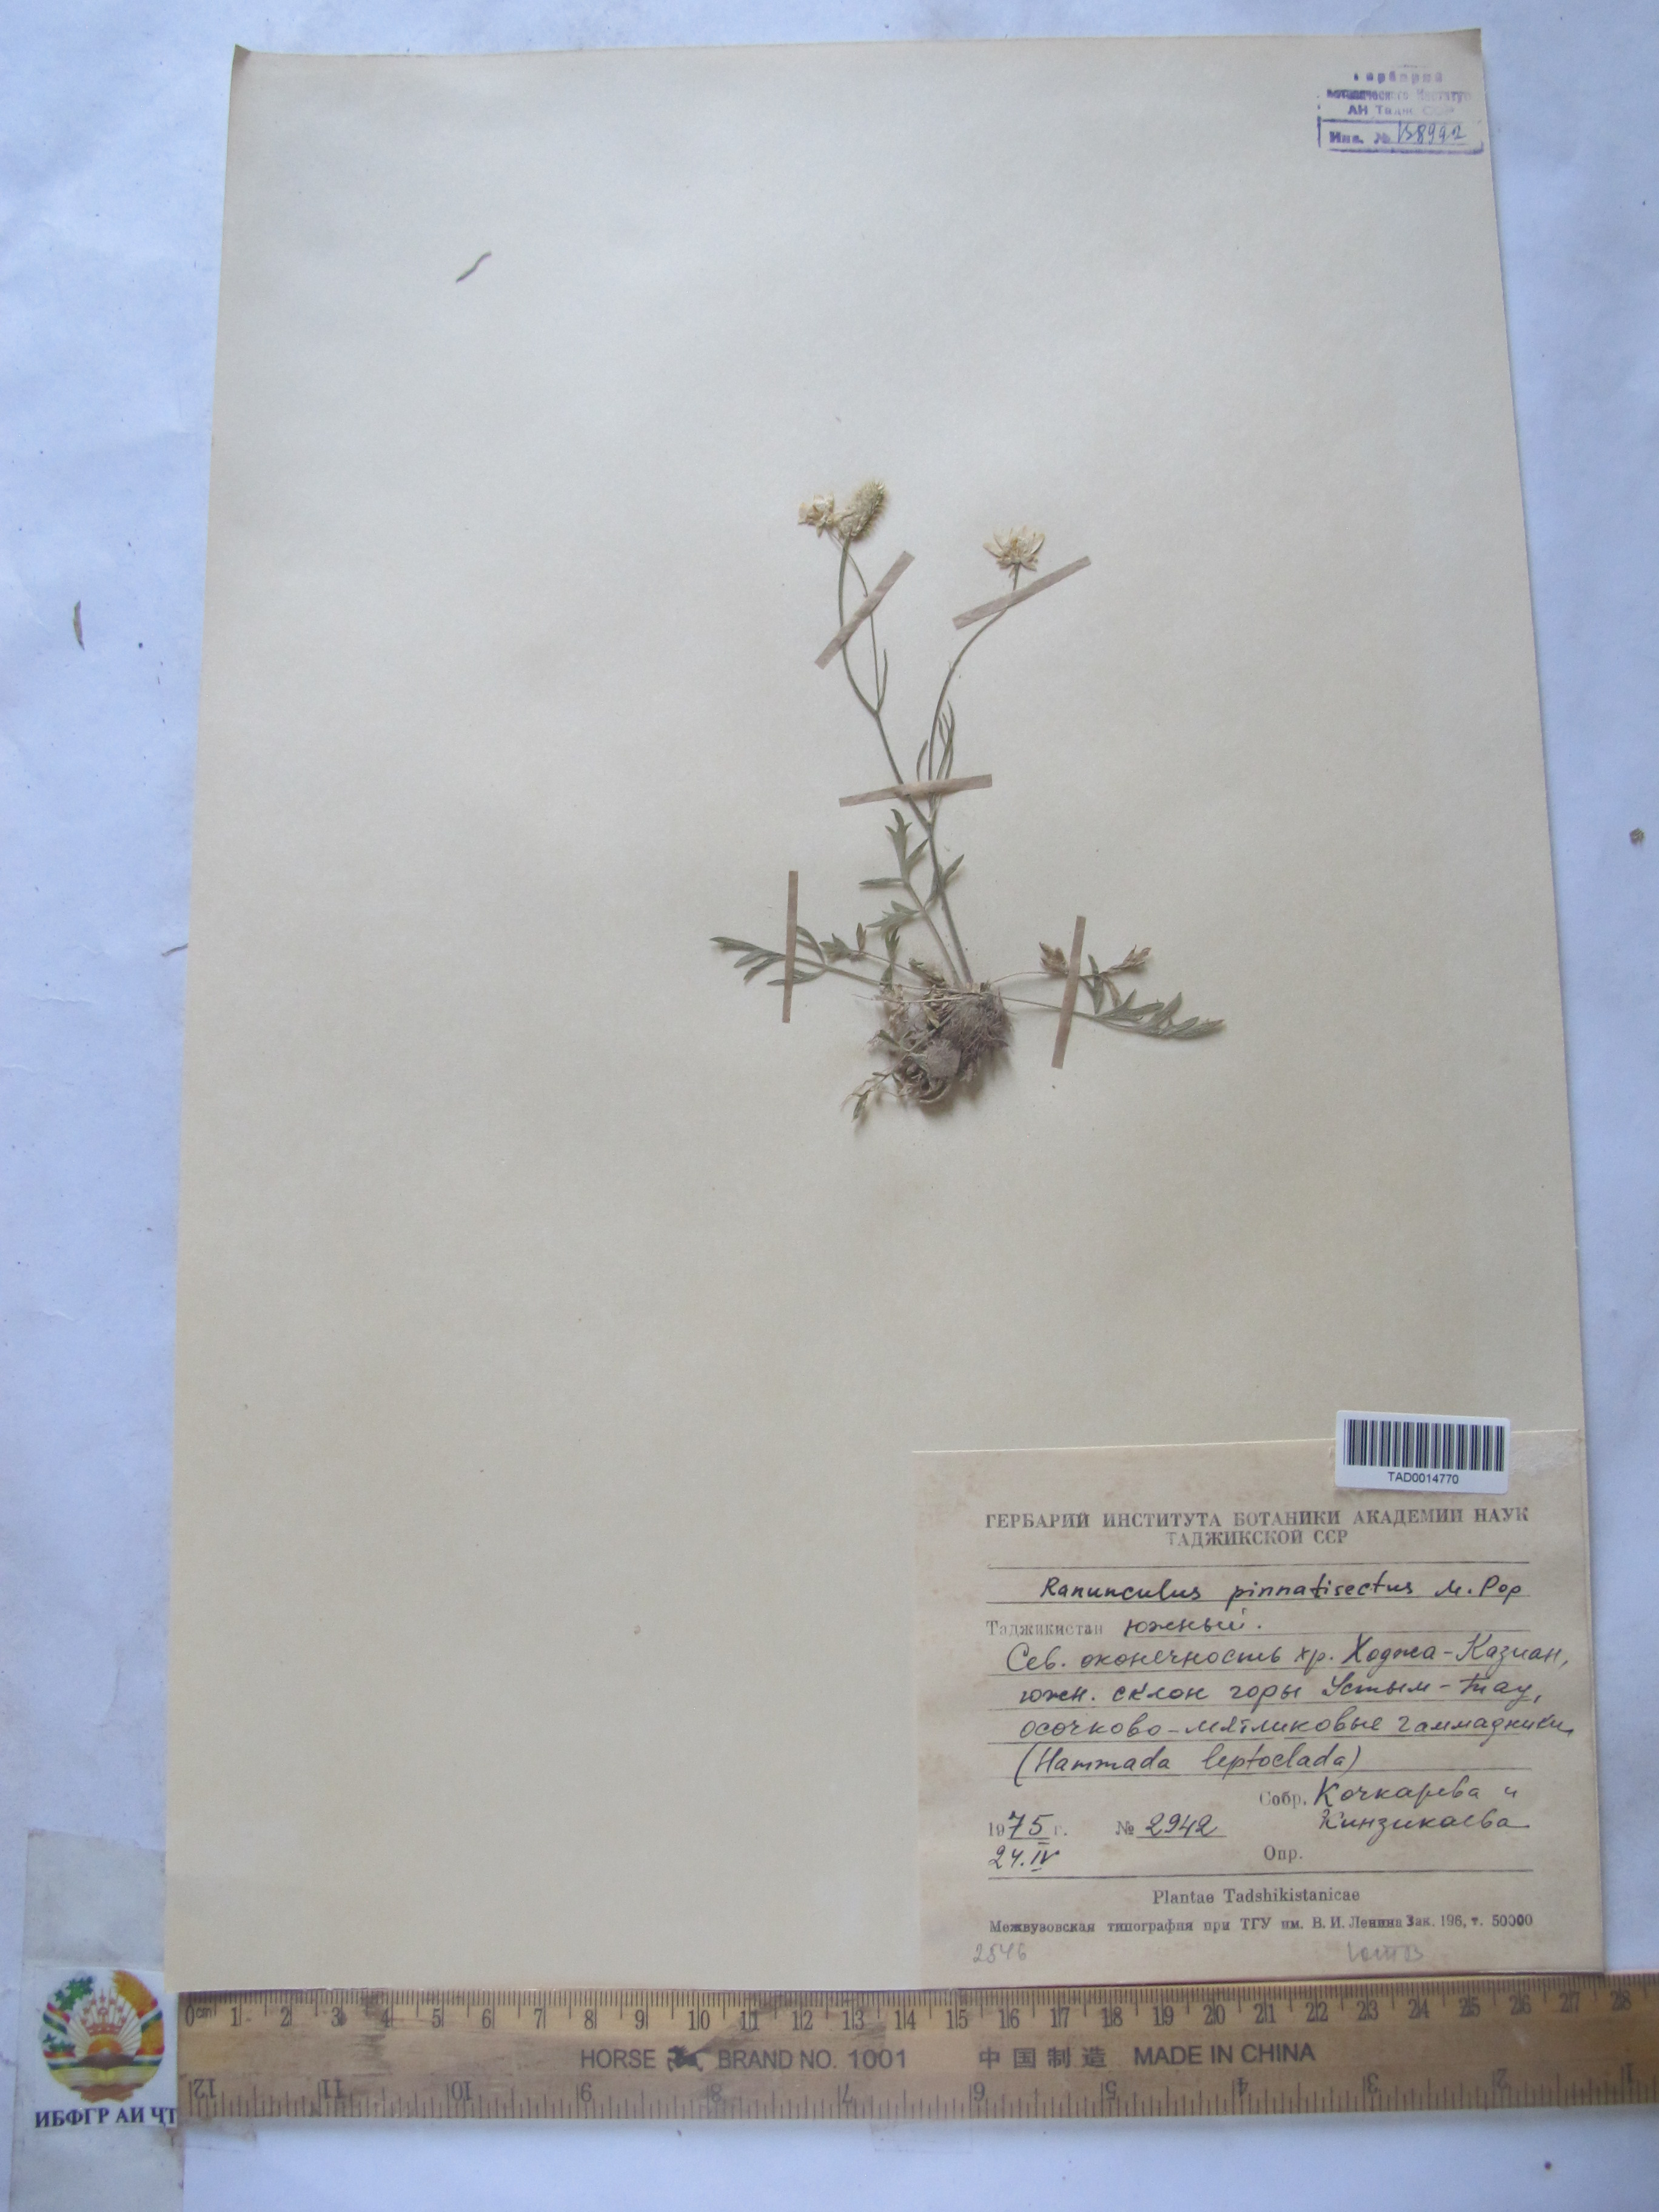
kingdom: Plantae
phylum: Tracheophyta
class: Magnoliopsida
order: Ranunculales
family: Ranunculaceae
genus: Ranunculus
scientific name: Ranunculus pinnatisectus
